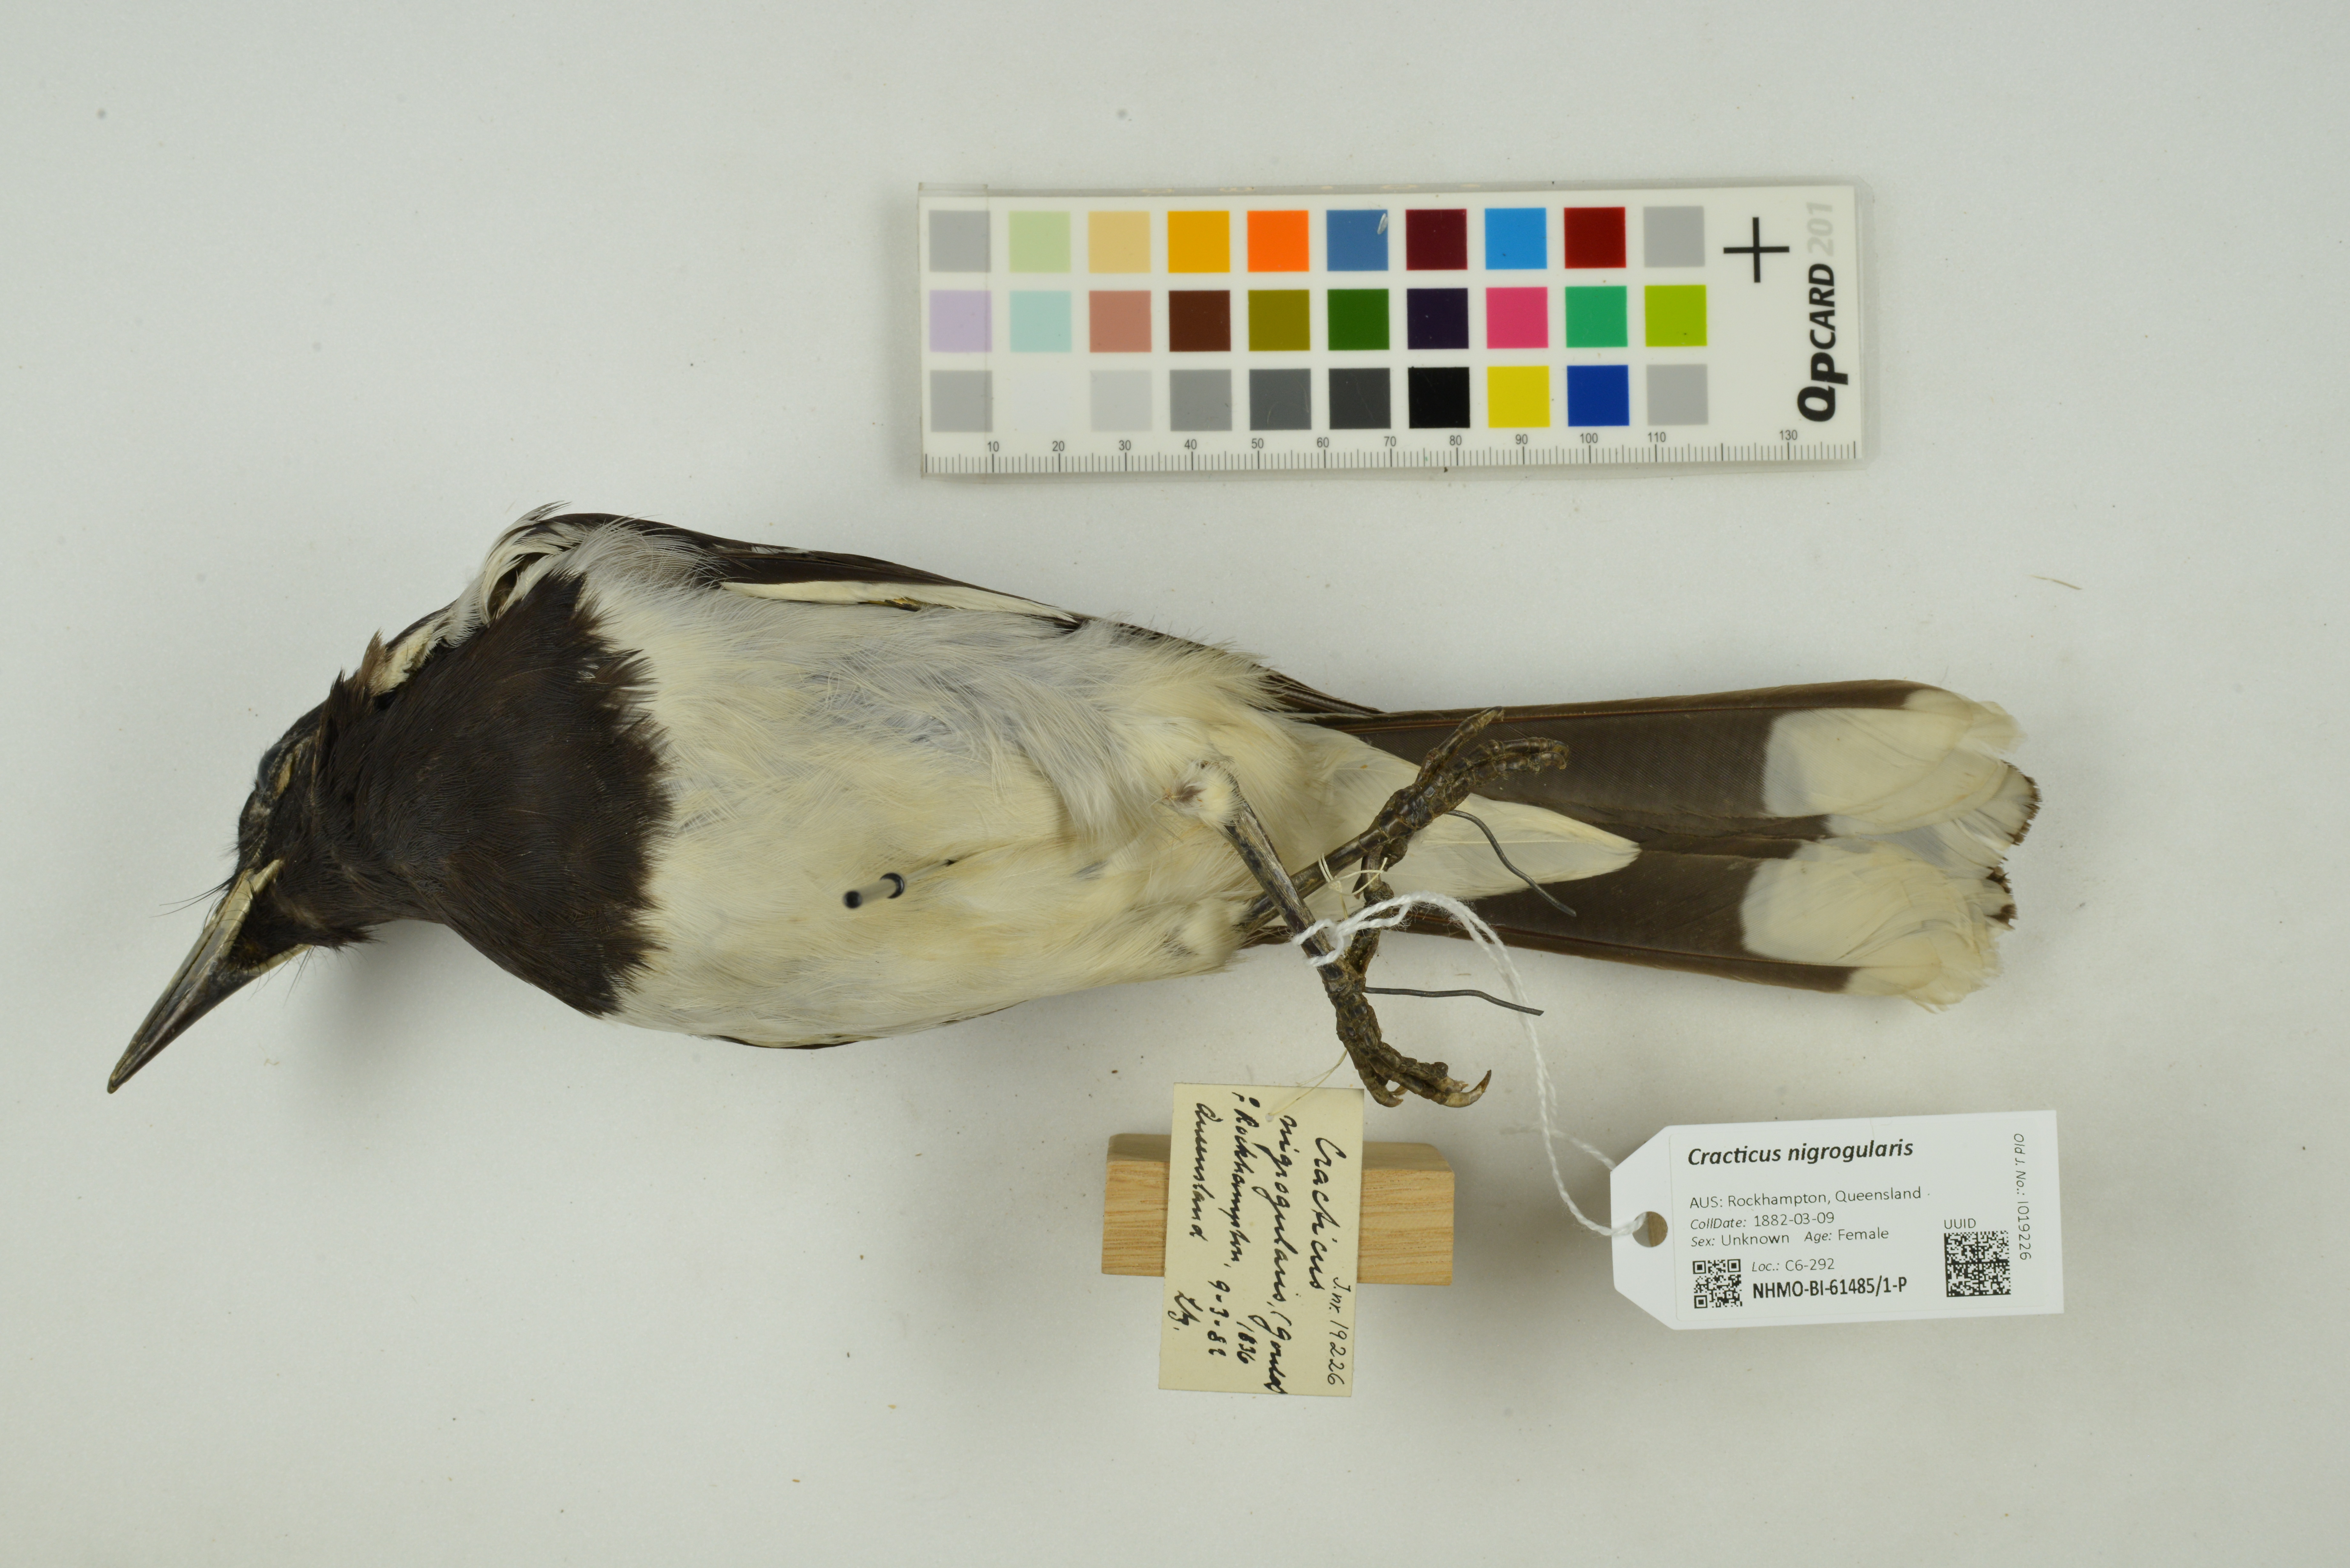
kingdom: Animalia
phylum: Chordata
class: Aves
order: Passeriformes
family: Cracticidae
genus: Cracticus
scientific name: Cracticus nigrogularis
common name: Pied butcherbird
